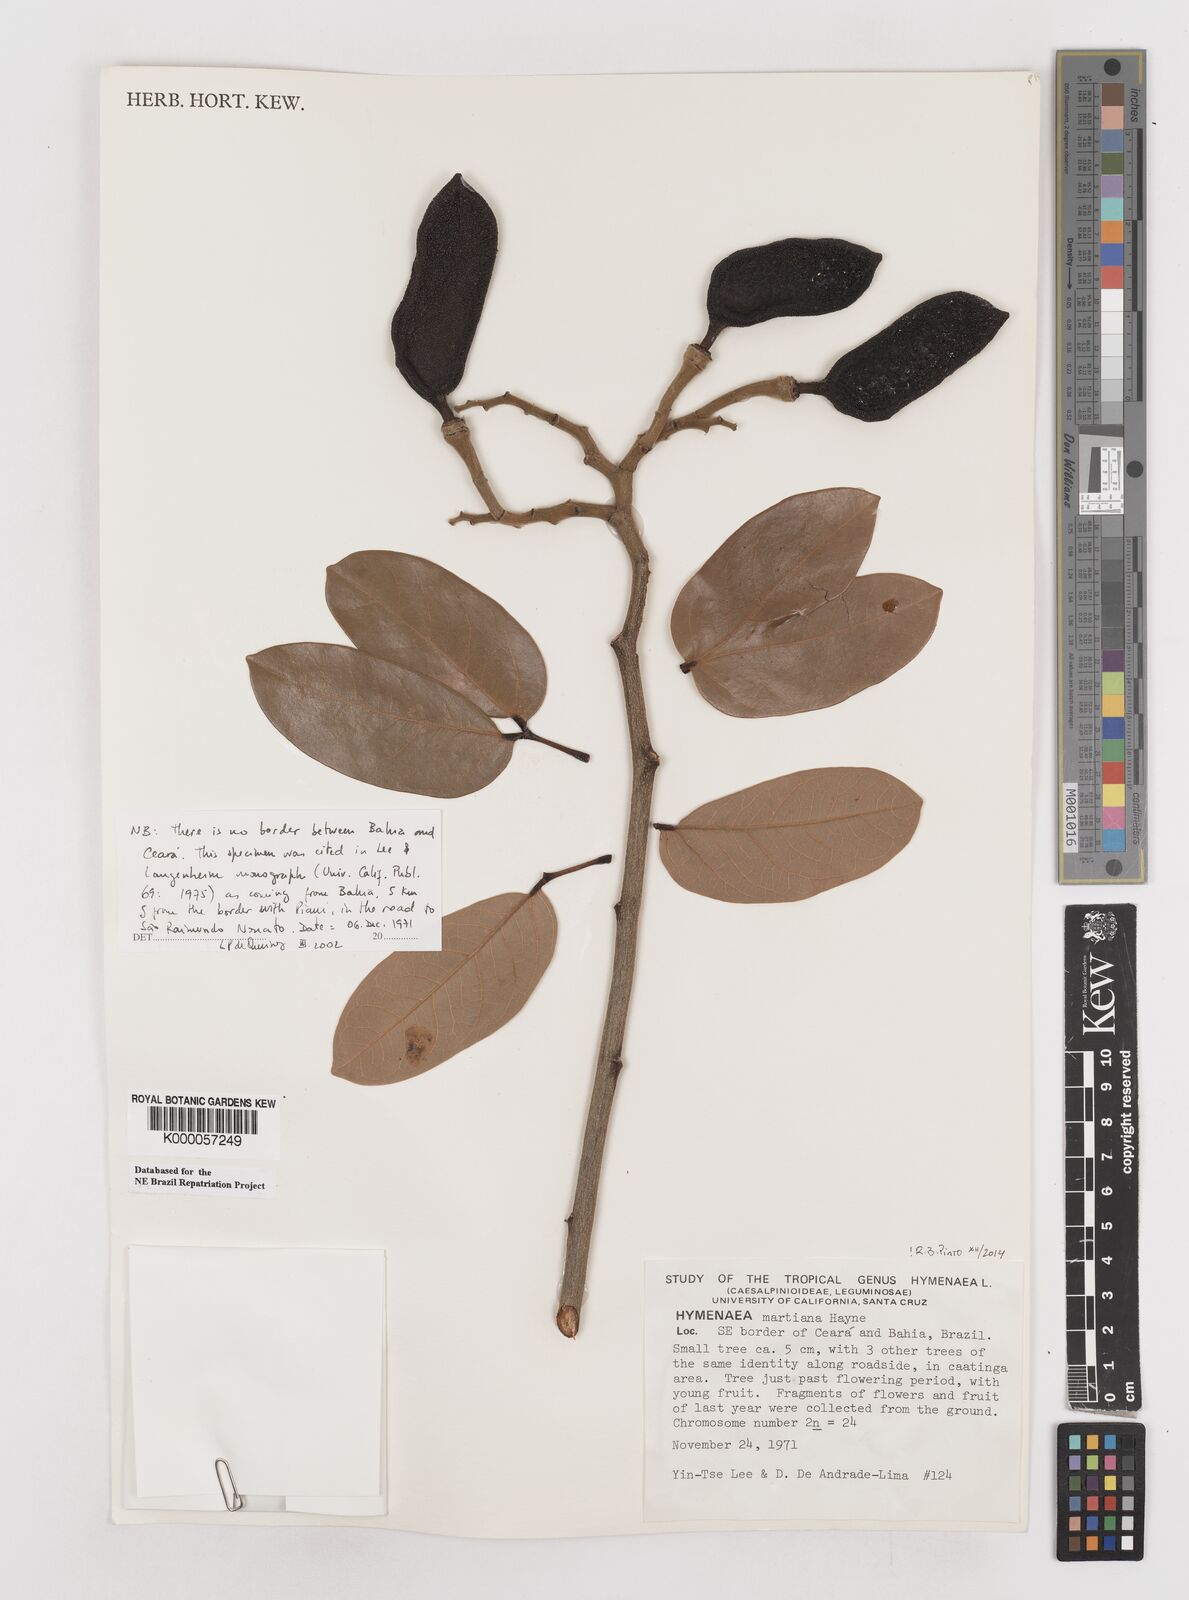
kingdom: Plantae
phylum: Tracheophyta
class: Magnoliopsida
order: Fabales
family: Fabaceae
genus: Hymenaea
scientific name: Hymenaea martiana
